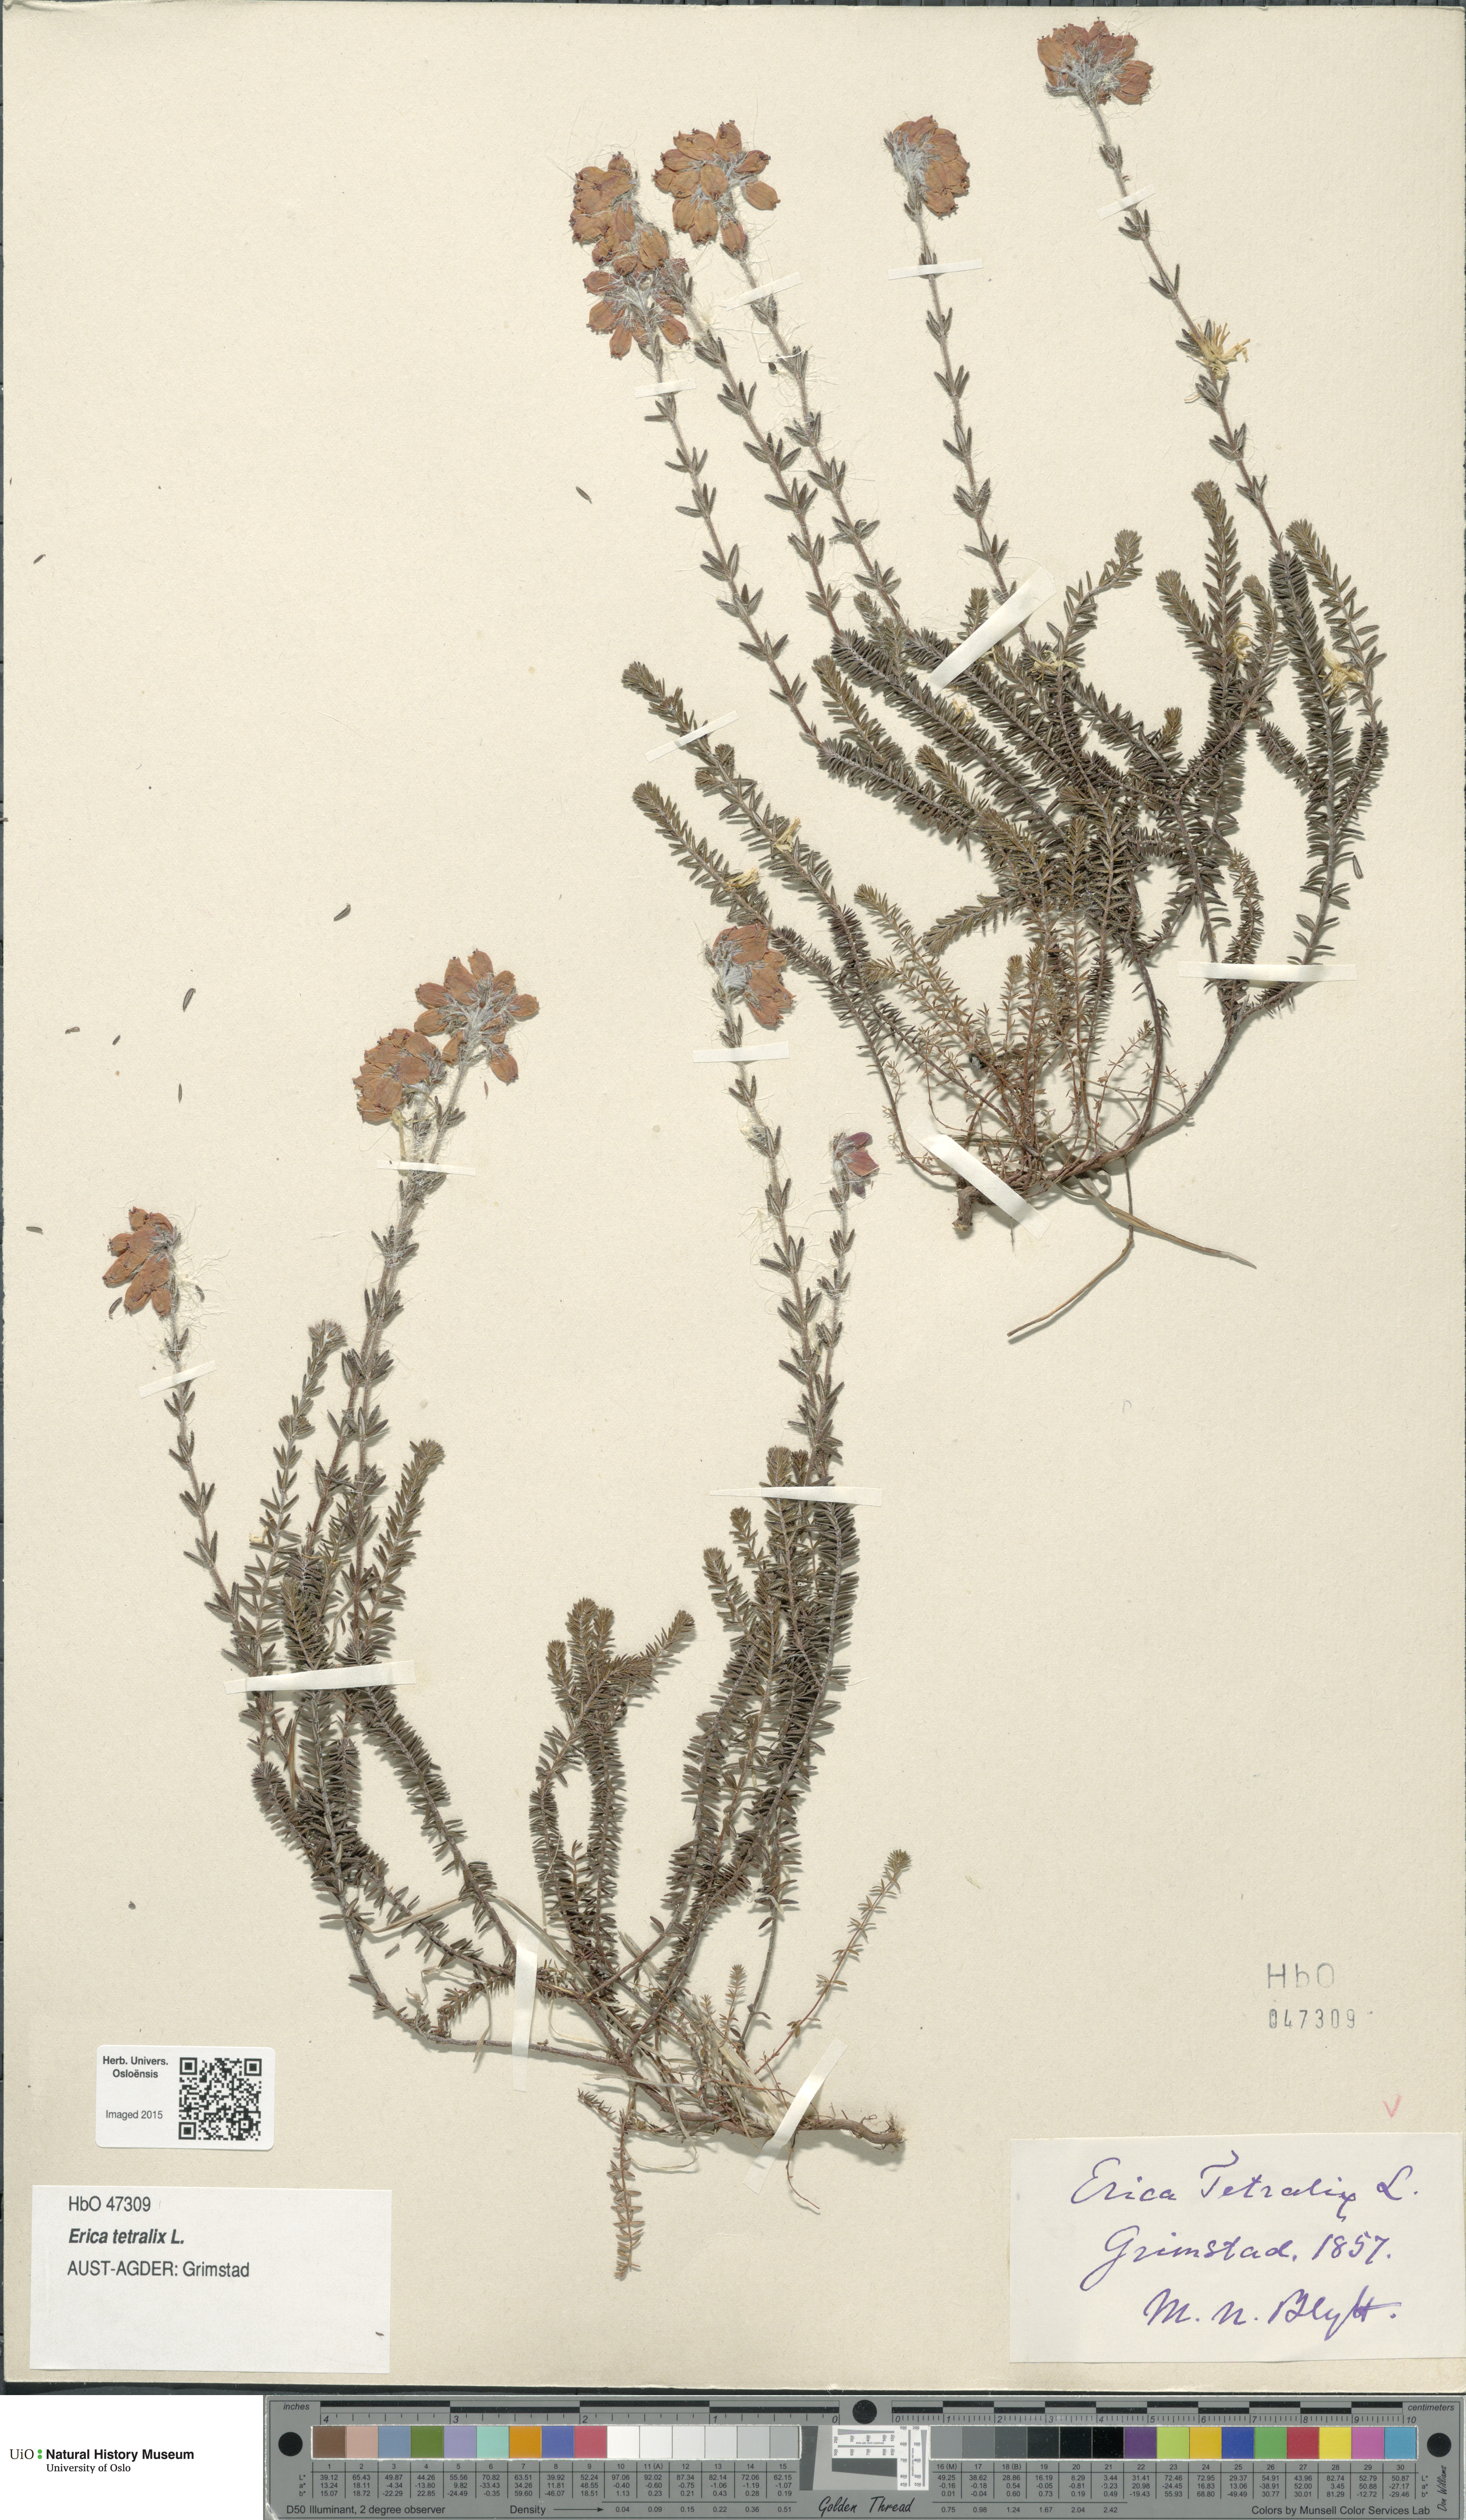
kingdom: Plantae
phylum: Tracheophyta
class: Magnoliopsida
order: Ericales
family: Ericaceae
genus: Erica
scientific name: Erica tetralix
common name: Cross-leaved heath
